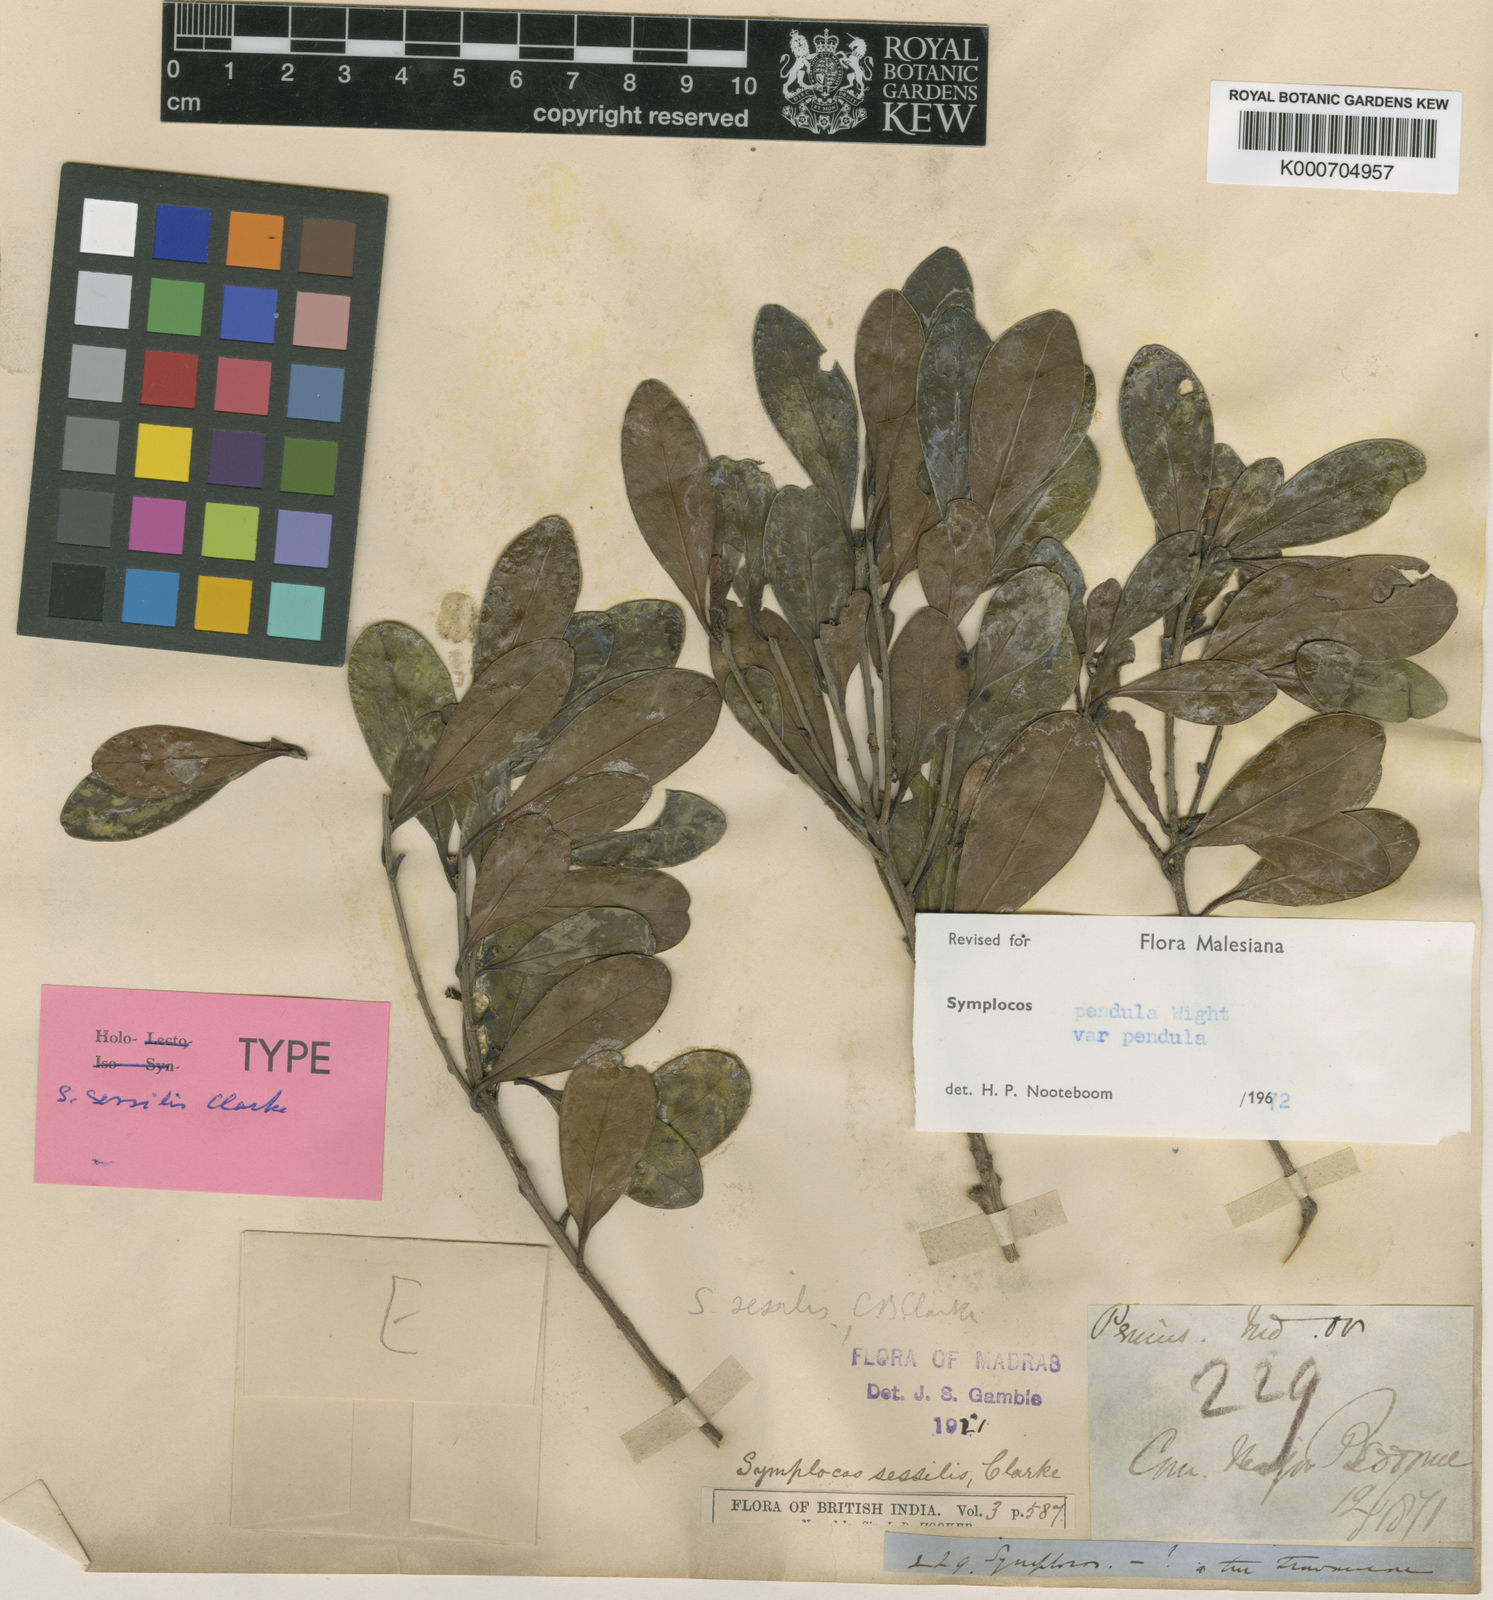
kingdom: Plantae
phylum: Tracheophyta
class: Magnoliopsida
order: Ericales
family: Symplocaceae
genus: Symplocos
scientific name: Symplocos pendula
